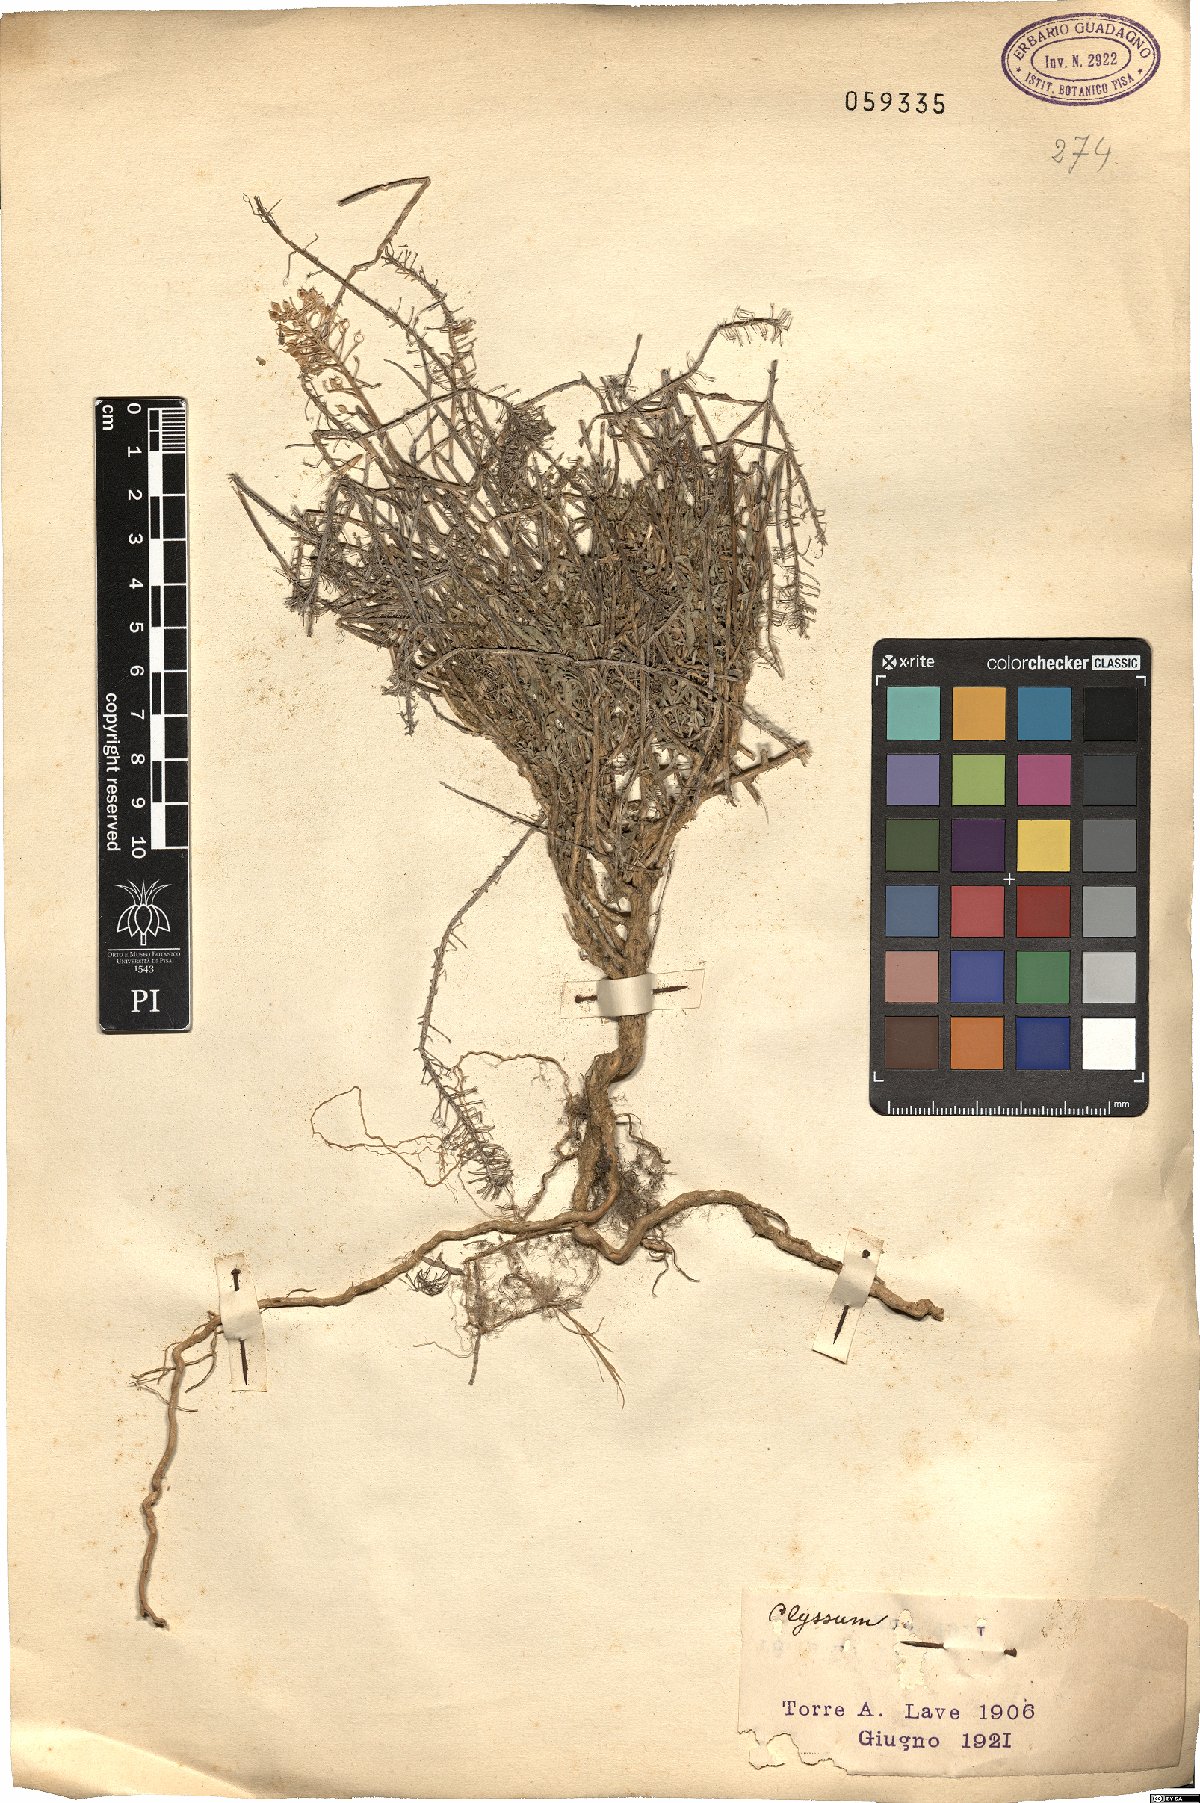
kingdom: Plantae
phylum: Tracheophyta
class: Magnoliopsida
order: Brassicales
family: Brassicaceae
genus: Alyssum
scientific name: Alyssum
